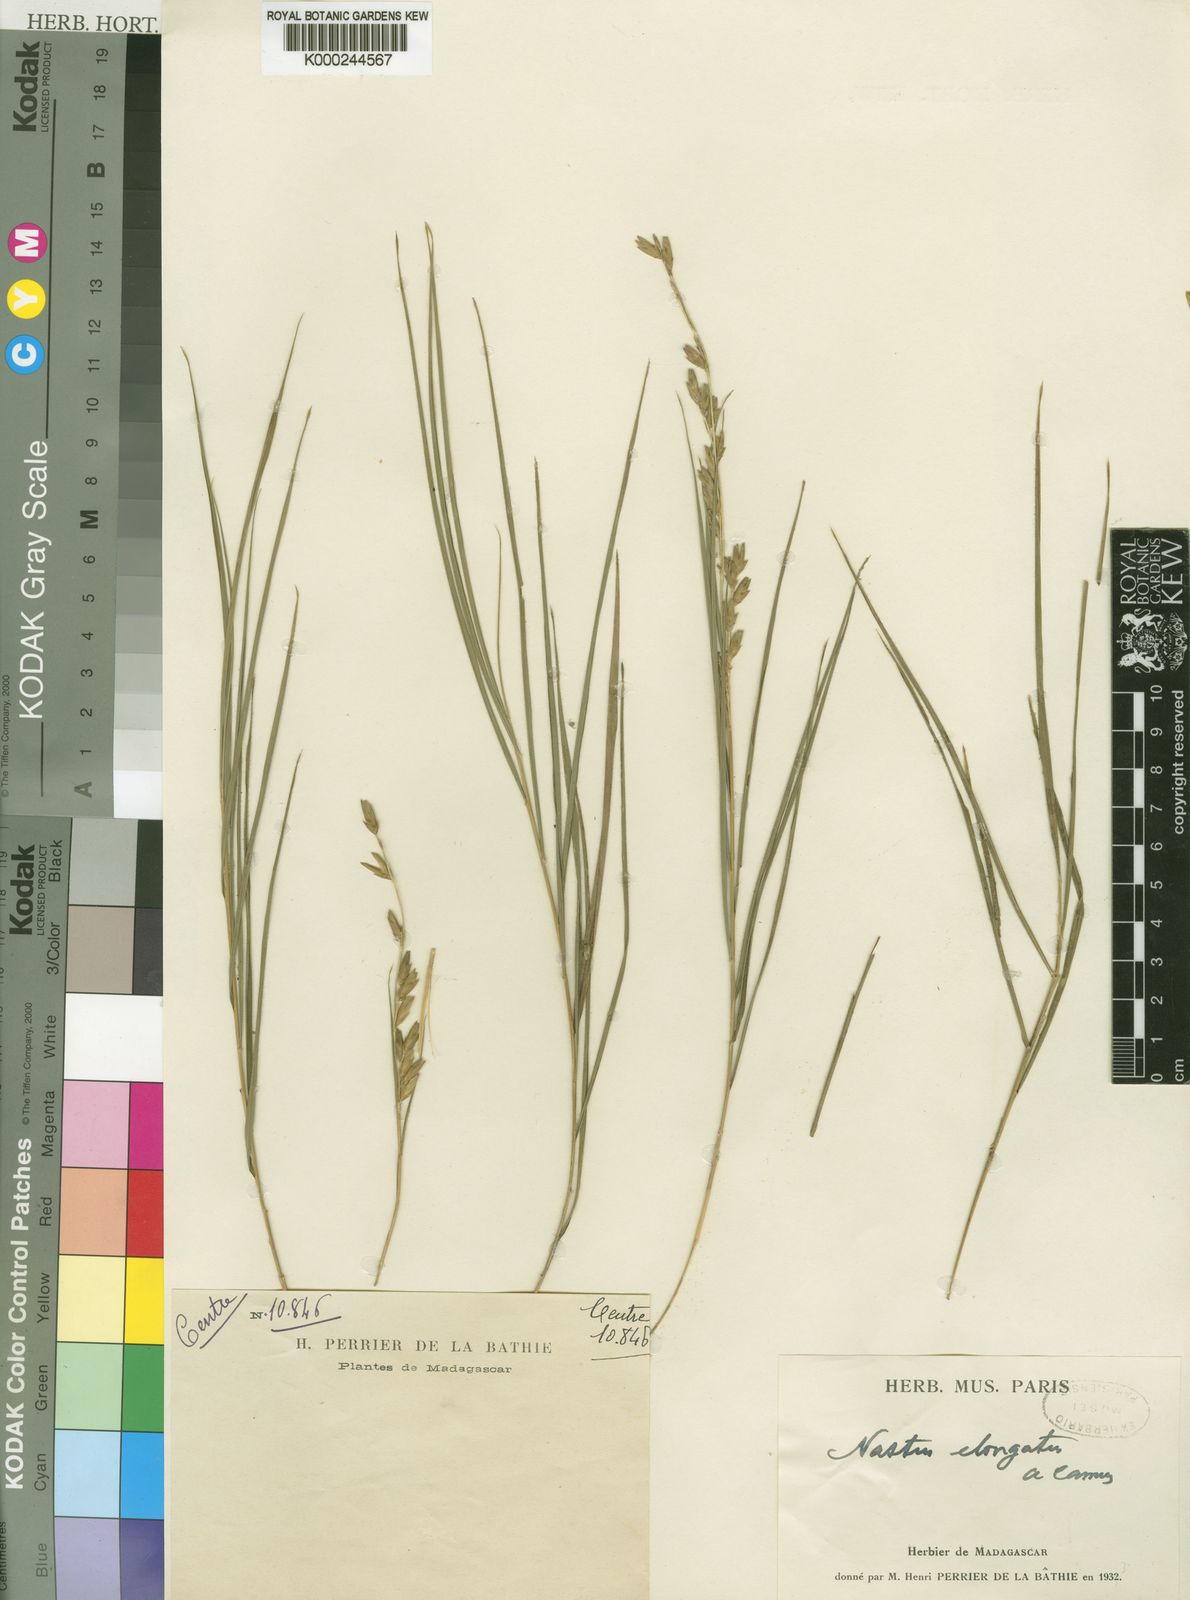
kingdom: Plantae
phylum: Tracheophyta
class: Liliopsida
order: Poales
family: Poaceae
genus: Nastus
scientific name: Nastus elongatus
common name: Spider bamboo
